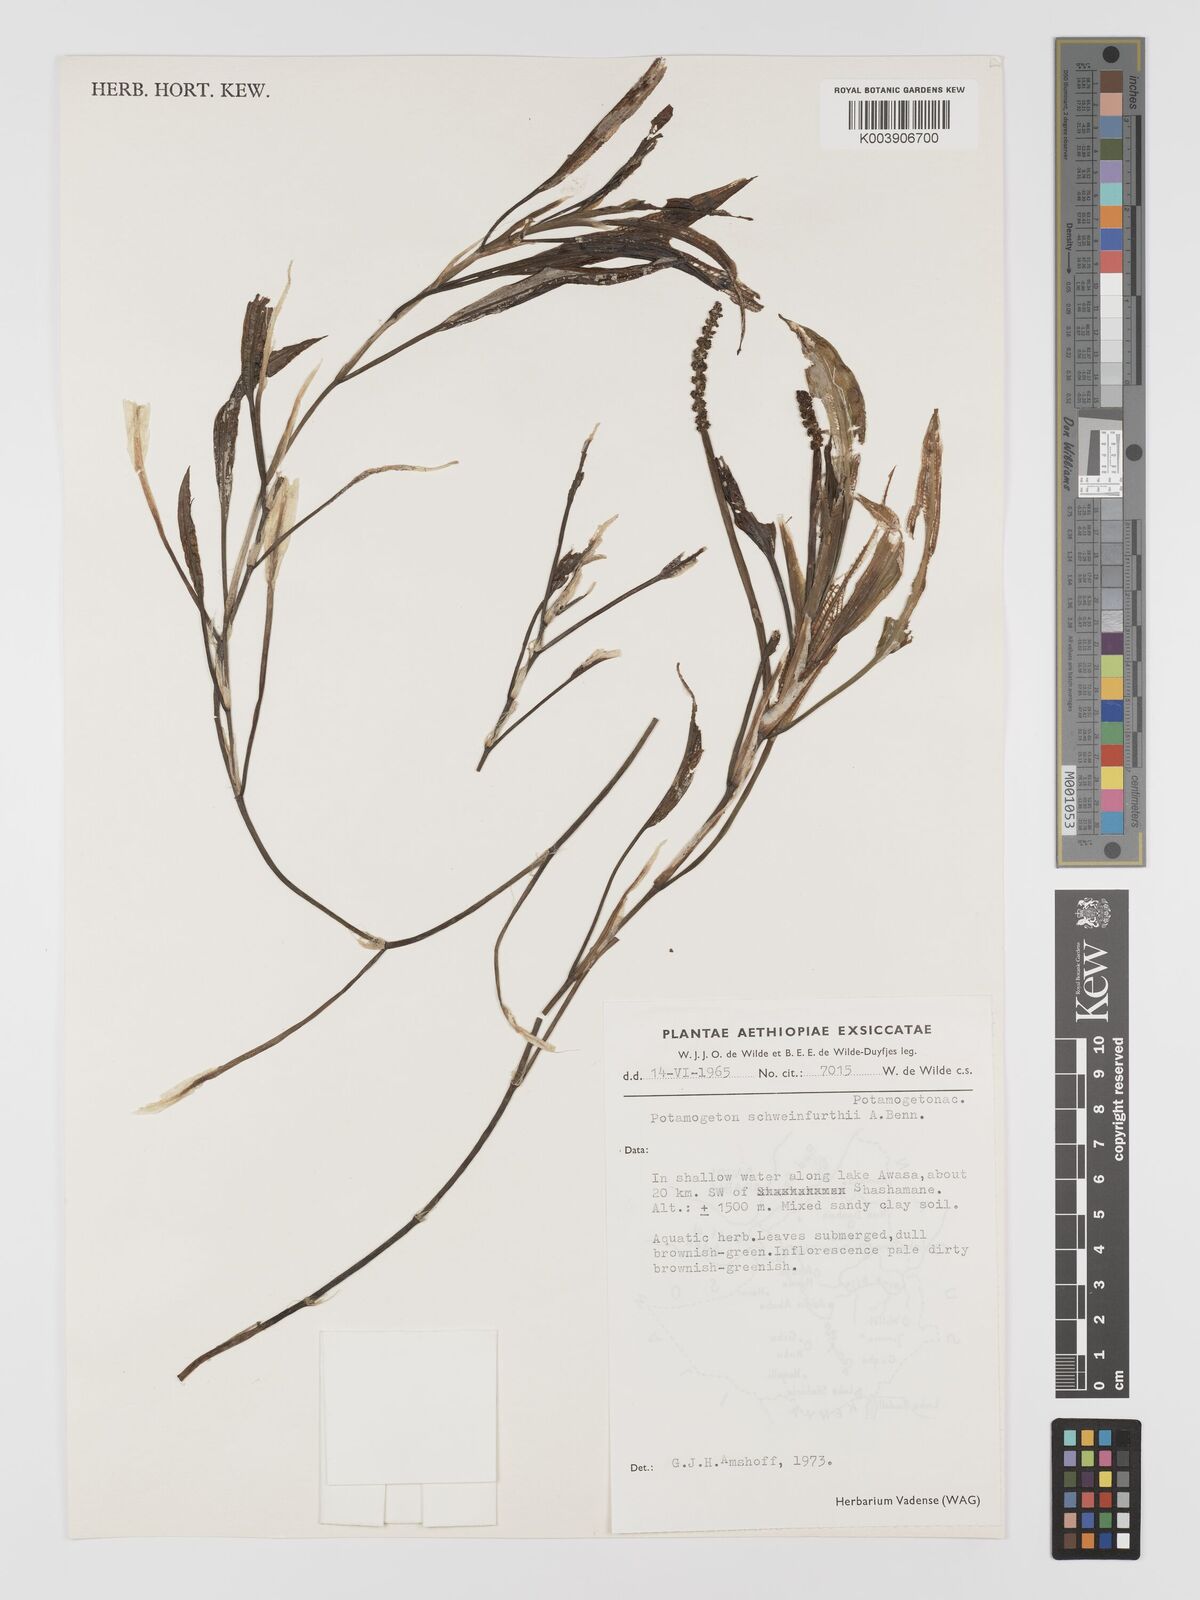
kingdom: Plantae
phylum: Tracheophyta
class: Liliopsida
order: Alismatales
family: Potamogetonaceae
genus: Potamogeton
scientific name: Potamogeton schweinfurthii
